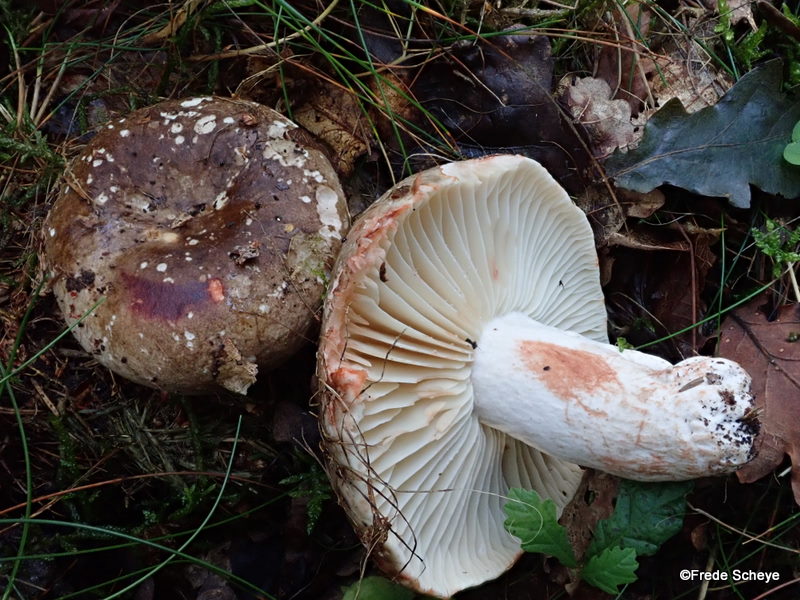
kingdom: Fungi
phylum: Basidiomycota
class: Agaricomycetes
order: Russulales
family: Russulaceae
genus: Russula
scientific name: Russula adusta
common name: sværtende skørhat
